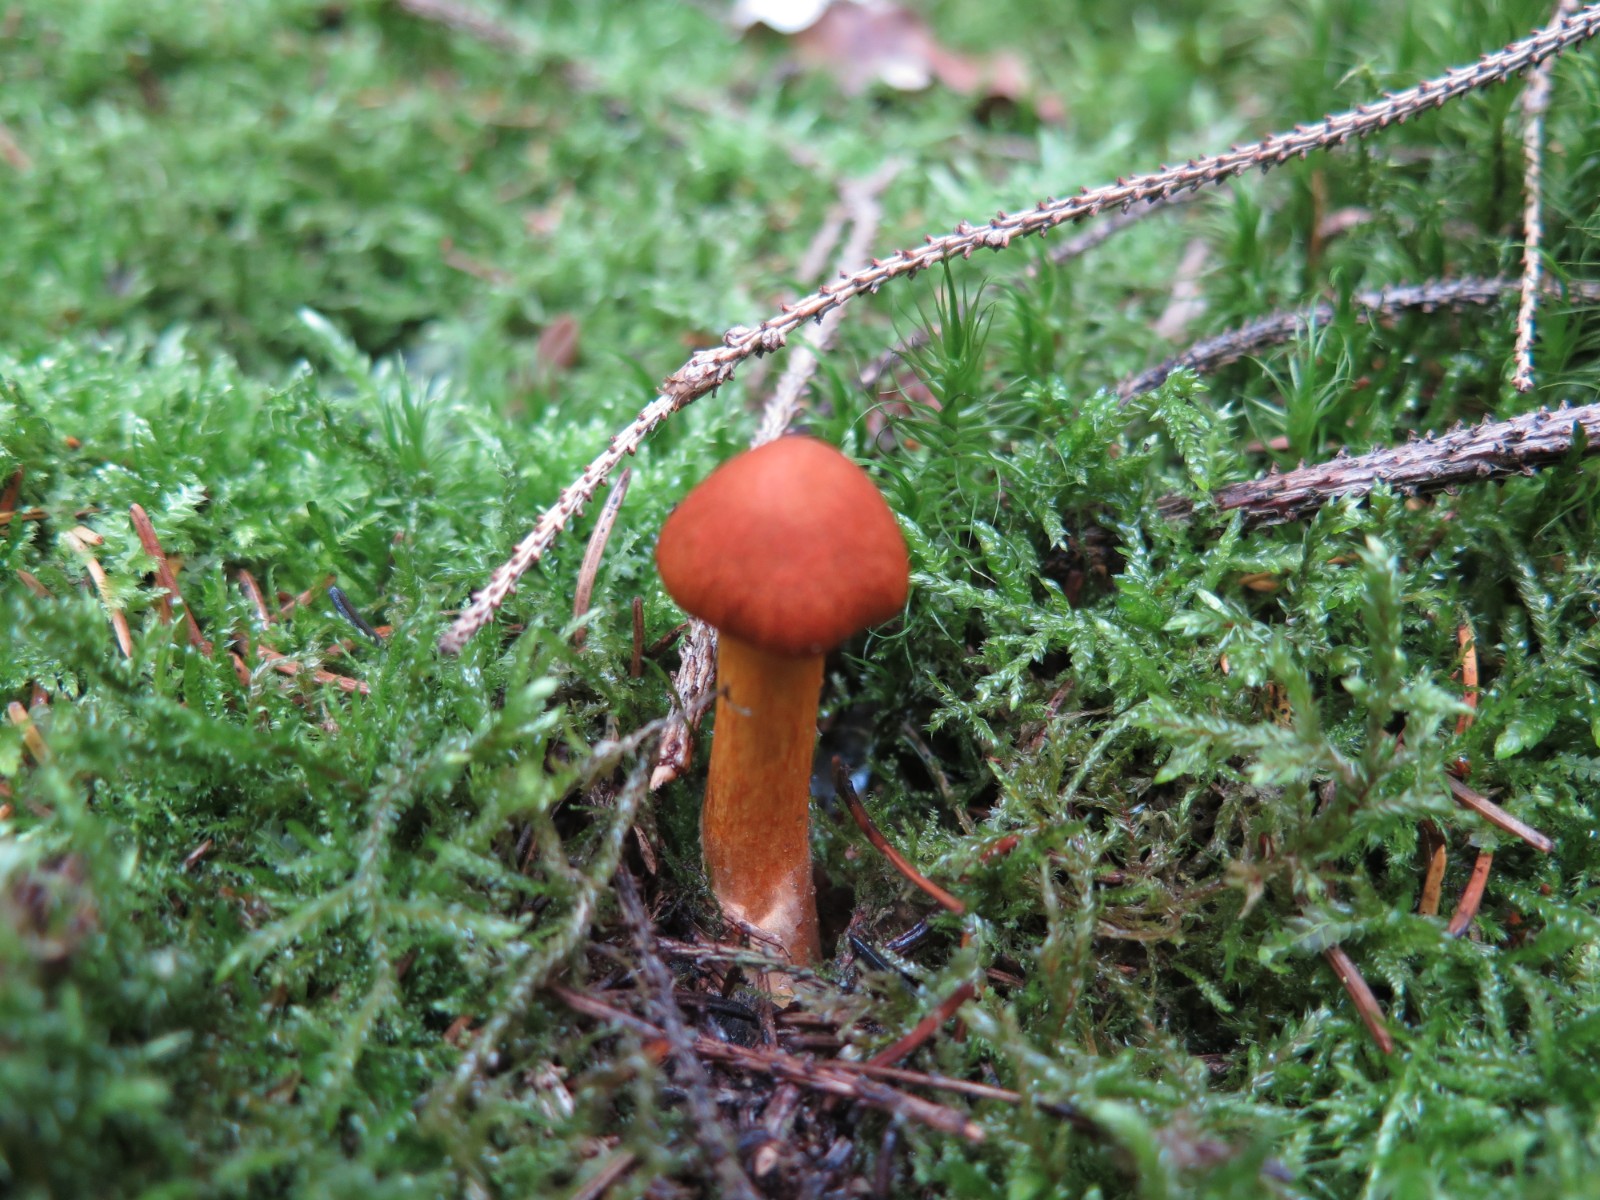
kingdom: Fungi
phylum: Basidiomycota
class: Agaricomycetes
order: Agaricales
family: Cortinariaceae
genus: Cortinarius
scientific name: Cortinarius
